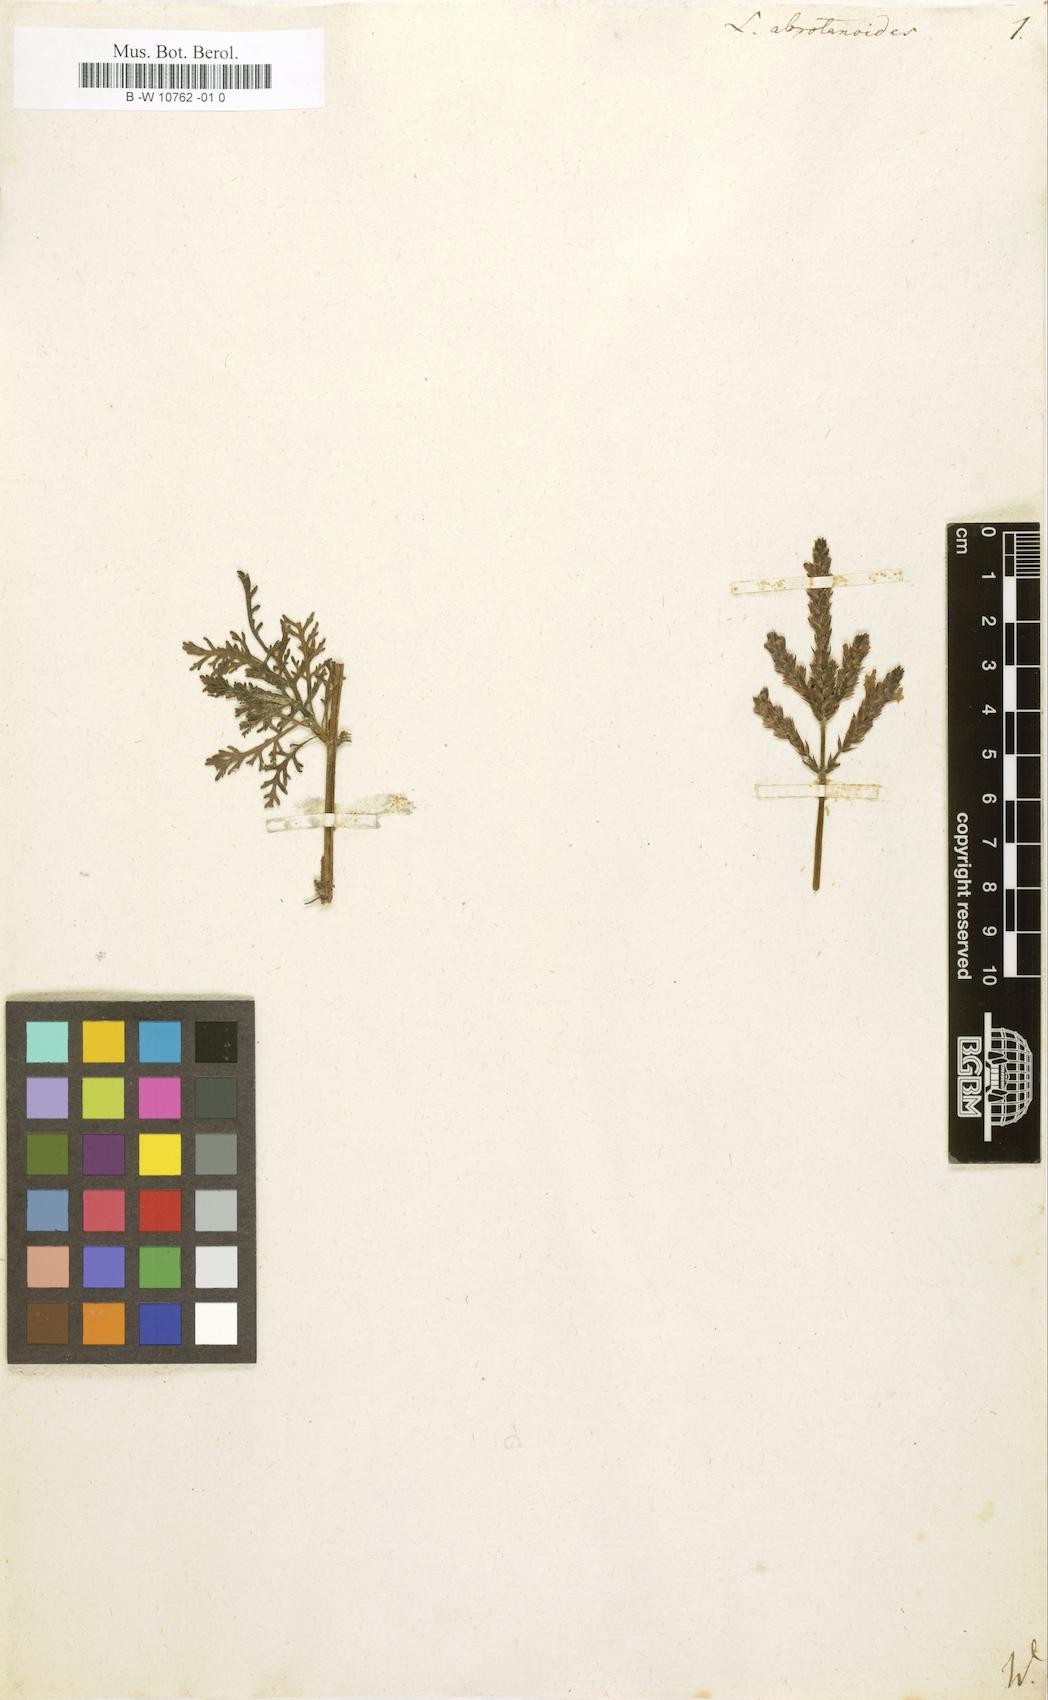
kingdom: Plantae
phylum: Tracheophyta
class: Magnoliopsida
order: Lamiales
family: Lamiaceae
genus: Lavandula
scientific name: Lavandula canariensis
